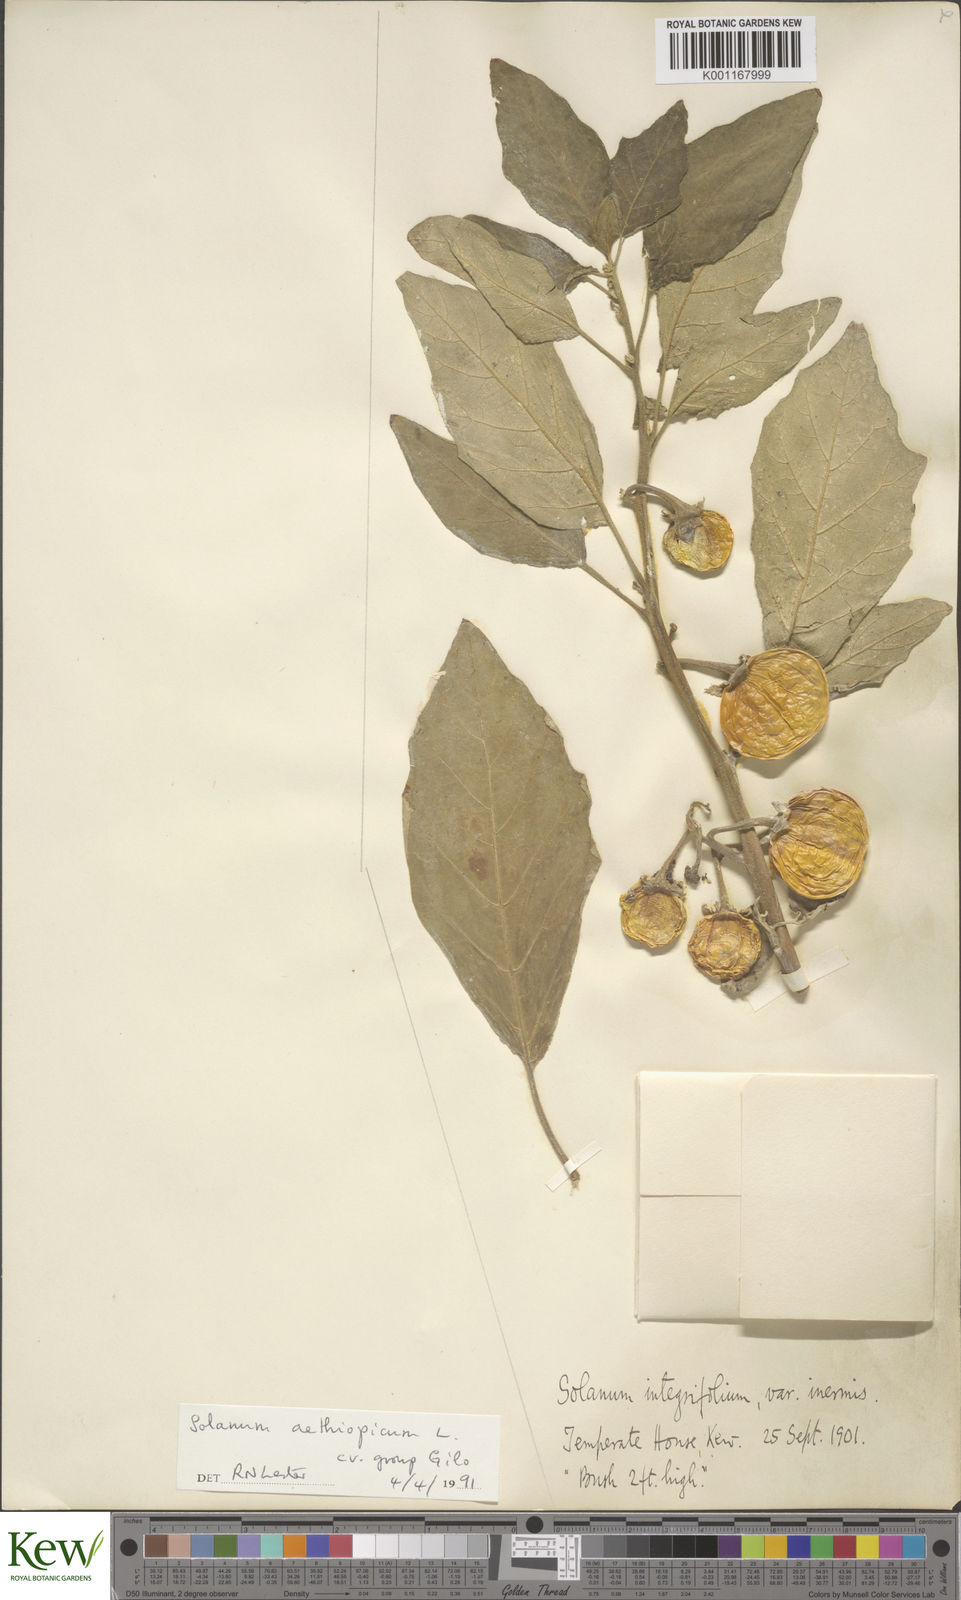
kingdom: Plantae
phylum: Tracheophyta
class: Magnoliopsida
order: Solanales
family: Solanaceae
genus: Solanum
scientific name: Solanum aethiopicum
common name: Gilo
